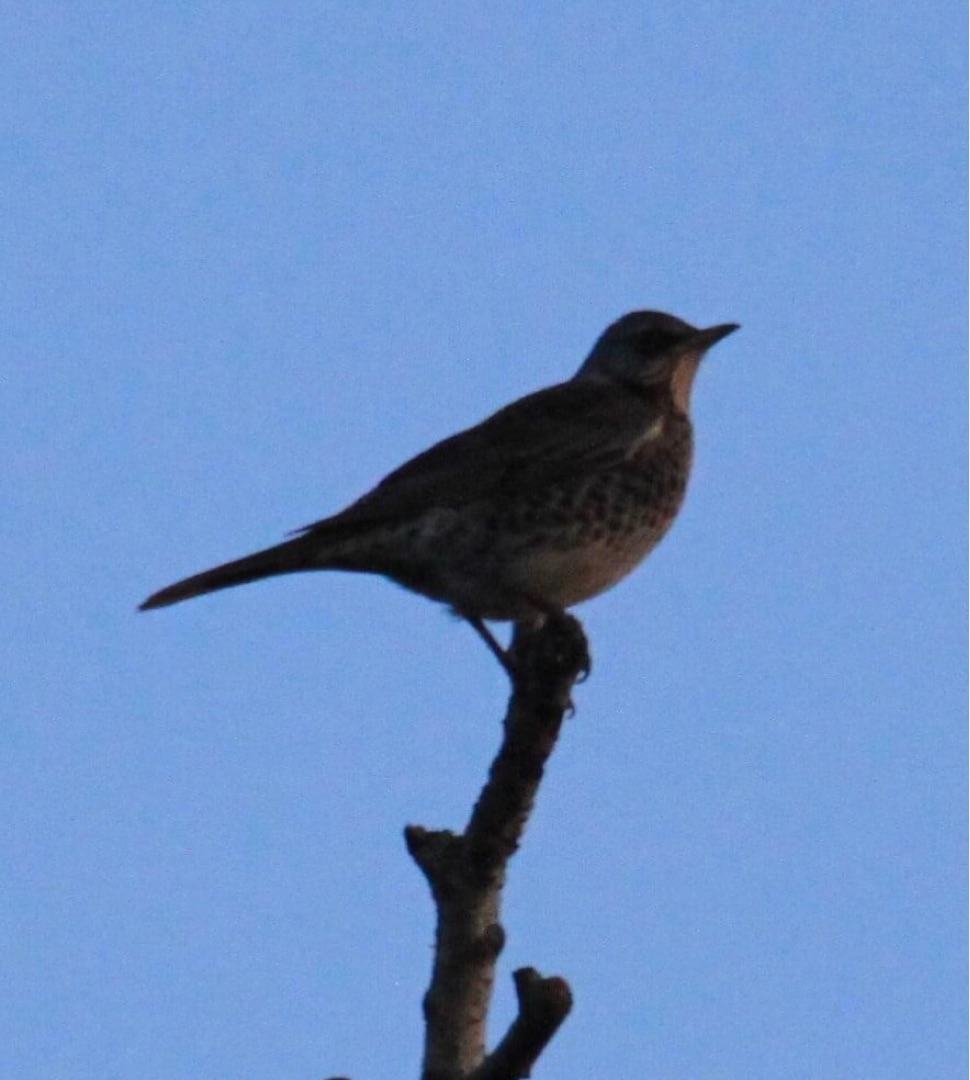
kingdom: Animalia
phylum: Chordata
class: Aves
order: Passeriformes
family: Turdidae
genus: Turdus
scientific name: Turdus pilaris
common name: Sjagger
